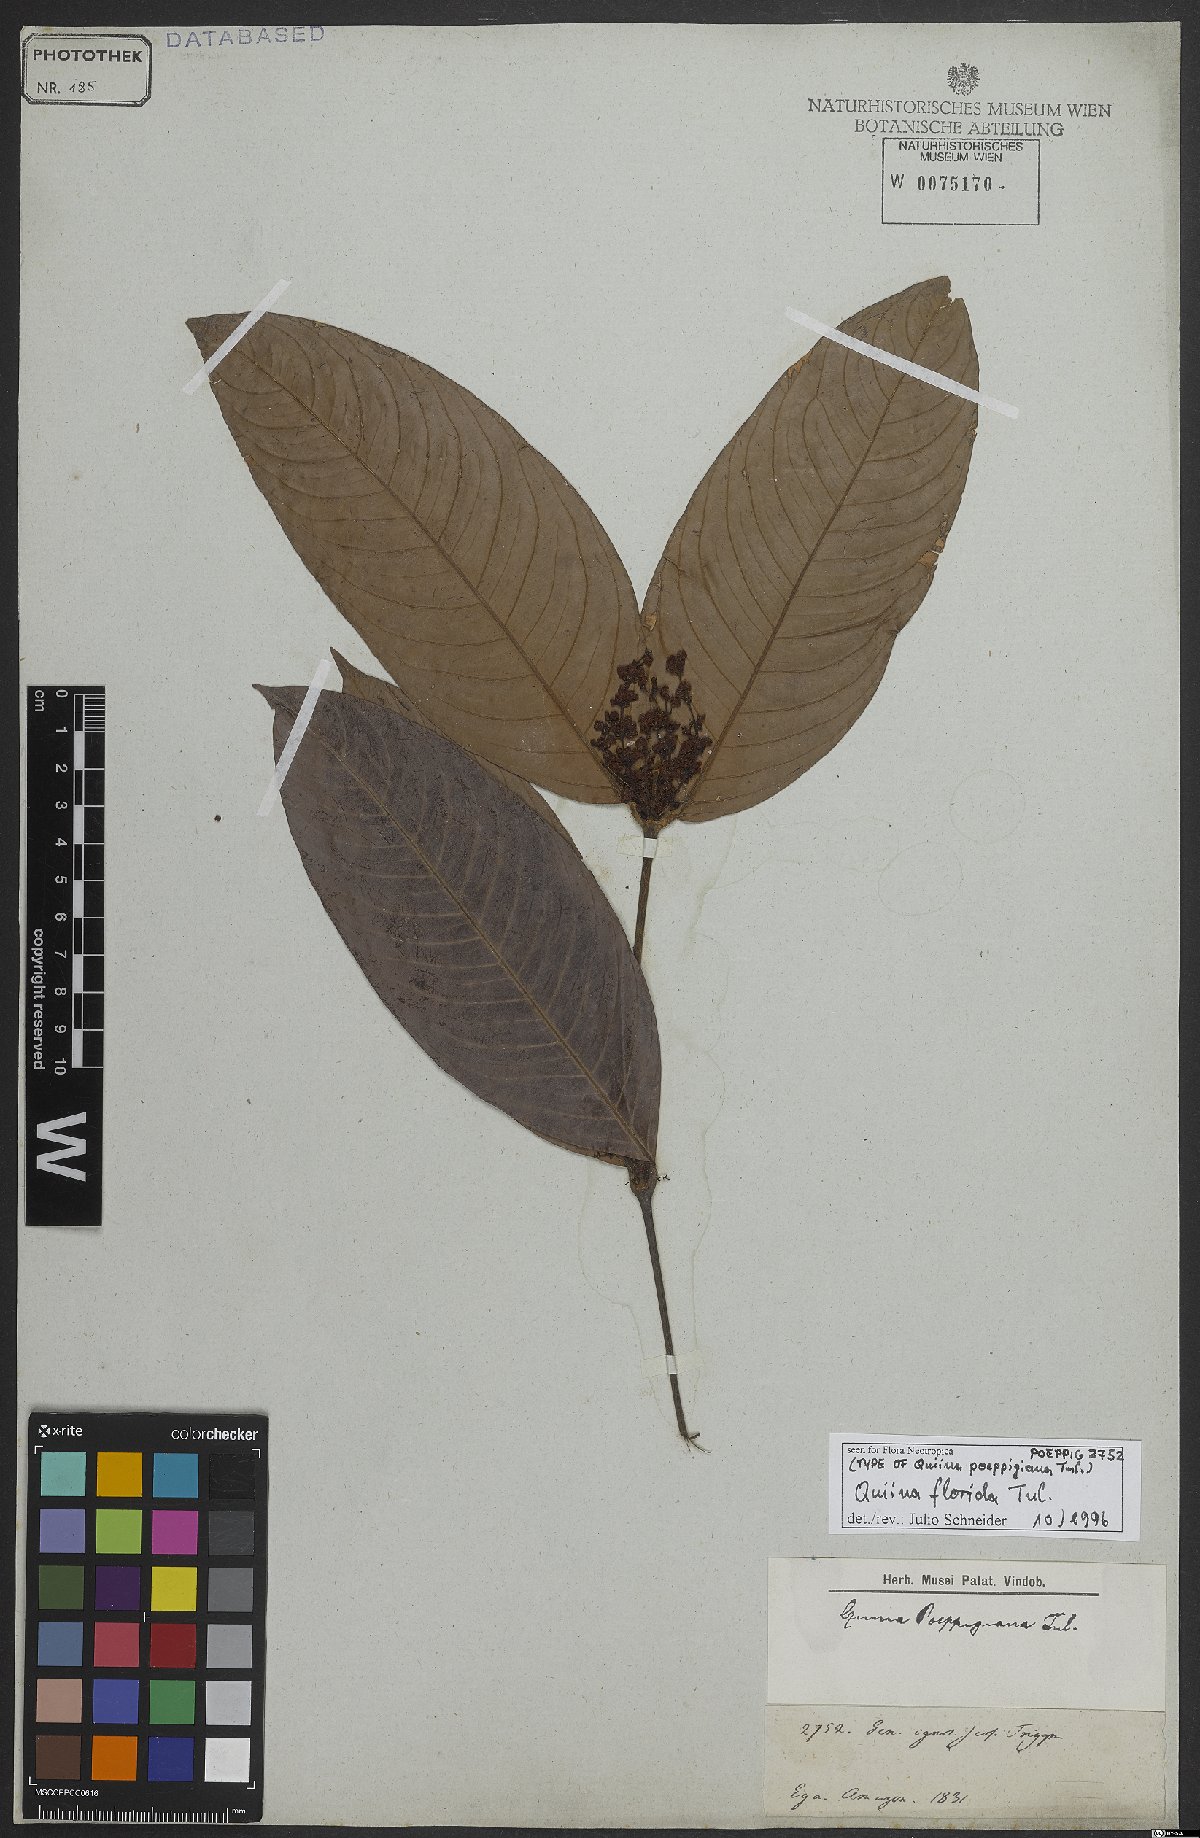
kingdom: Plantae
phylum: Tracheophyta
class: Magnoliopsida
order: Malpighiales
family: Quiinaceae
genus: Quiina
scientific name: Quiina florida
